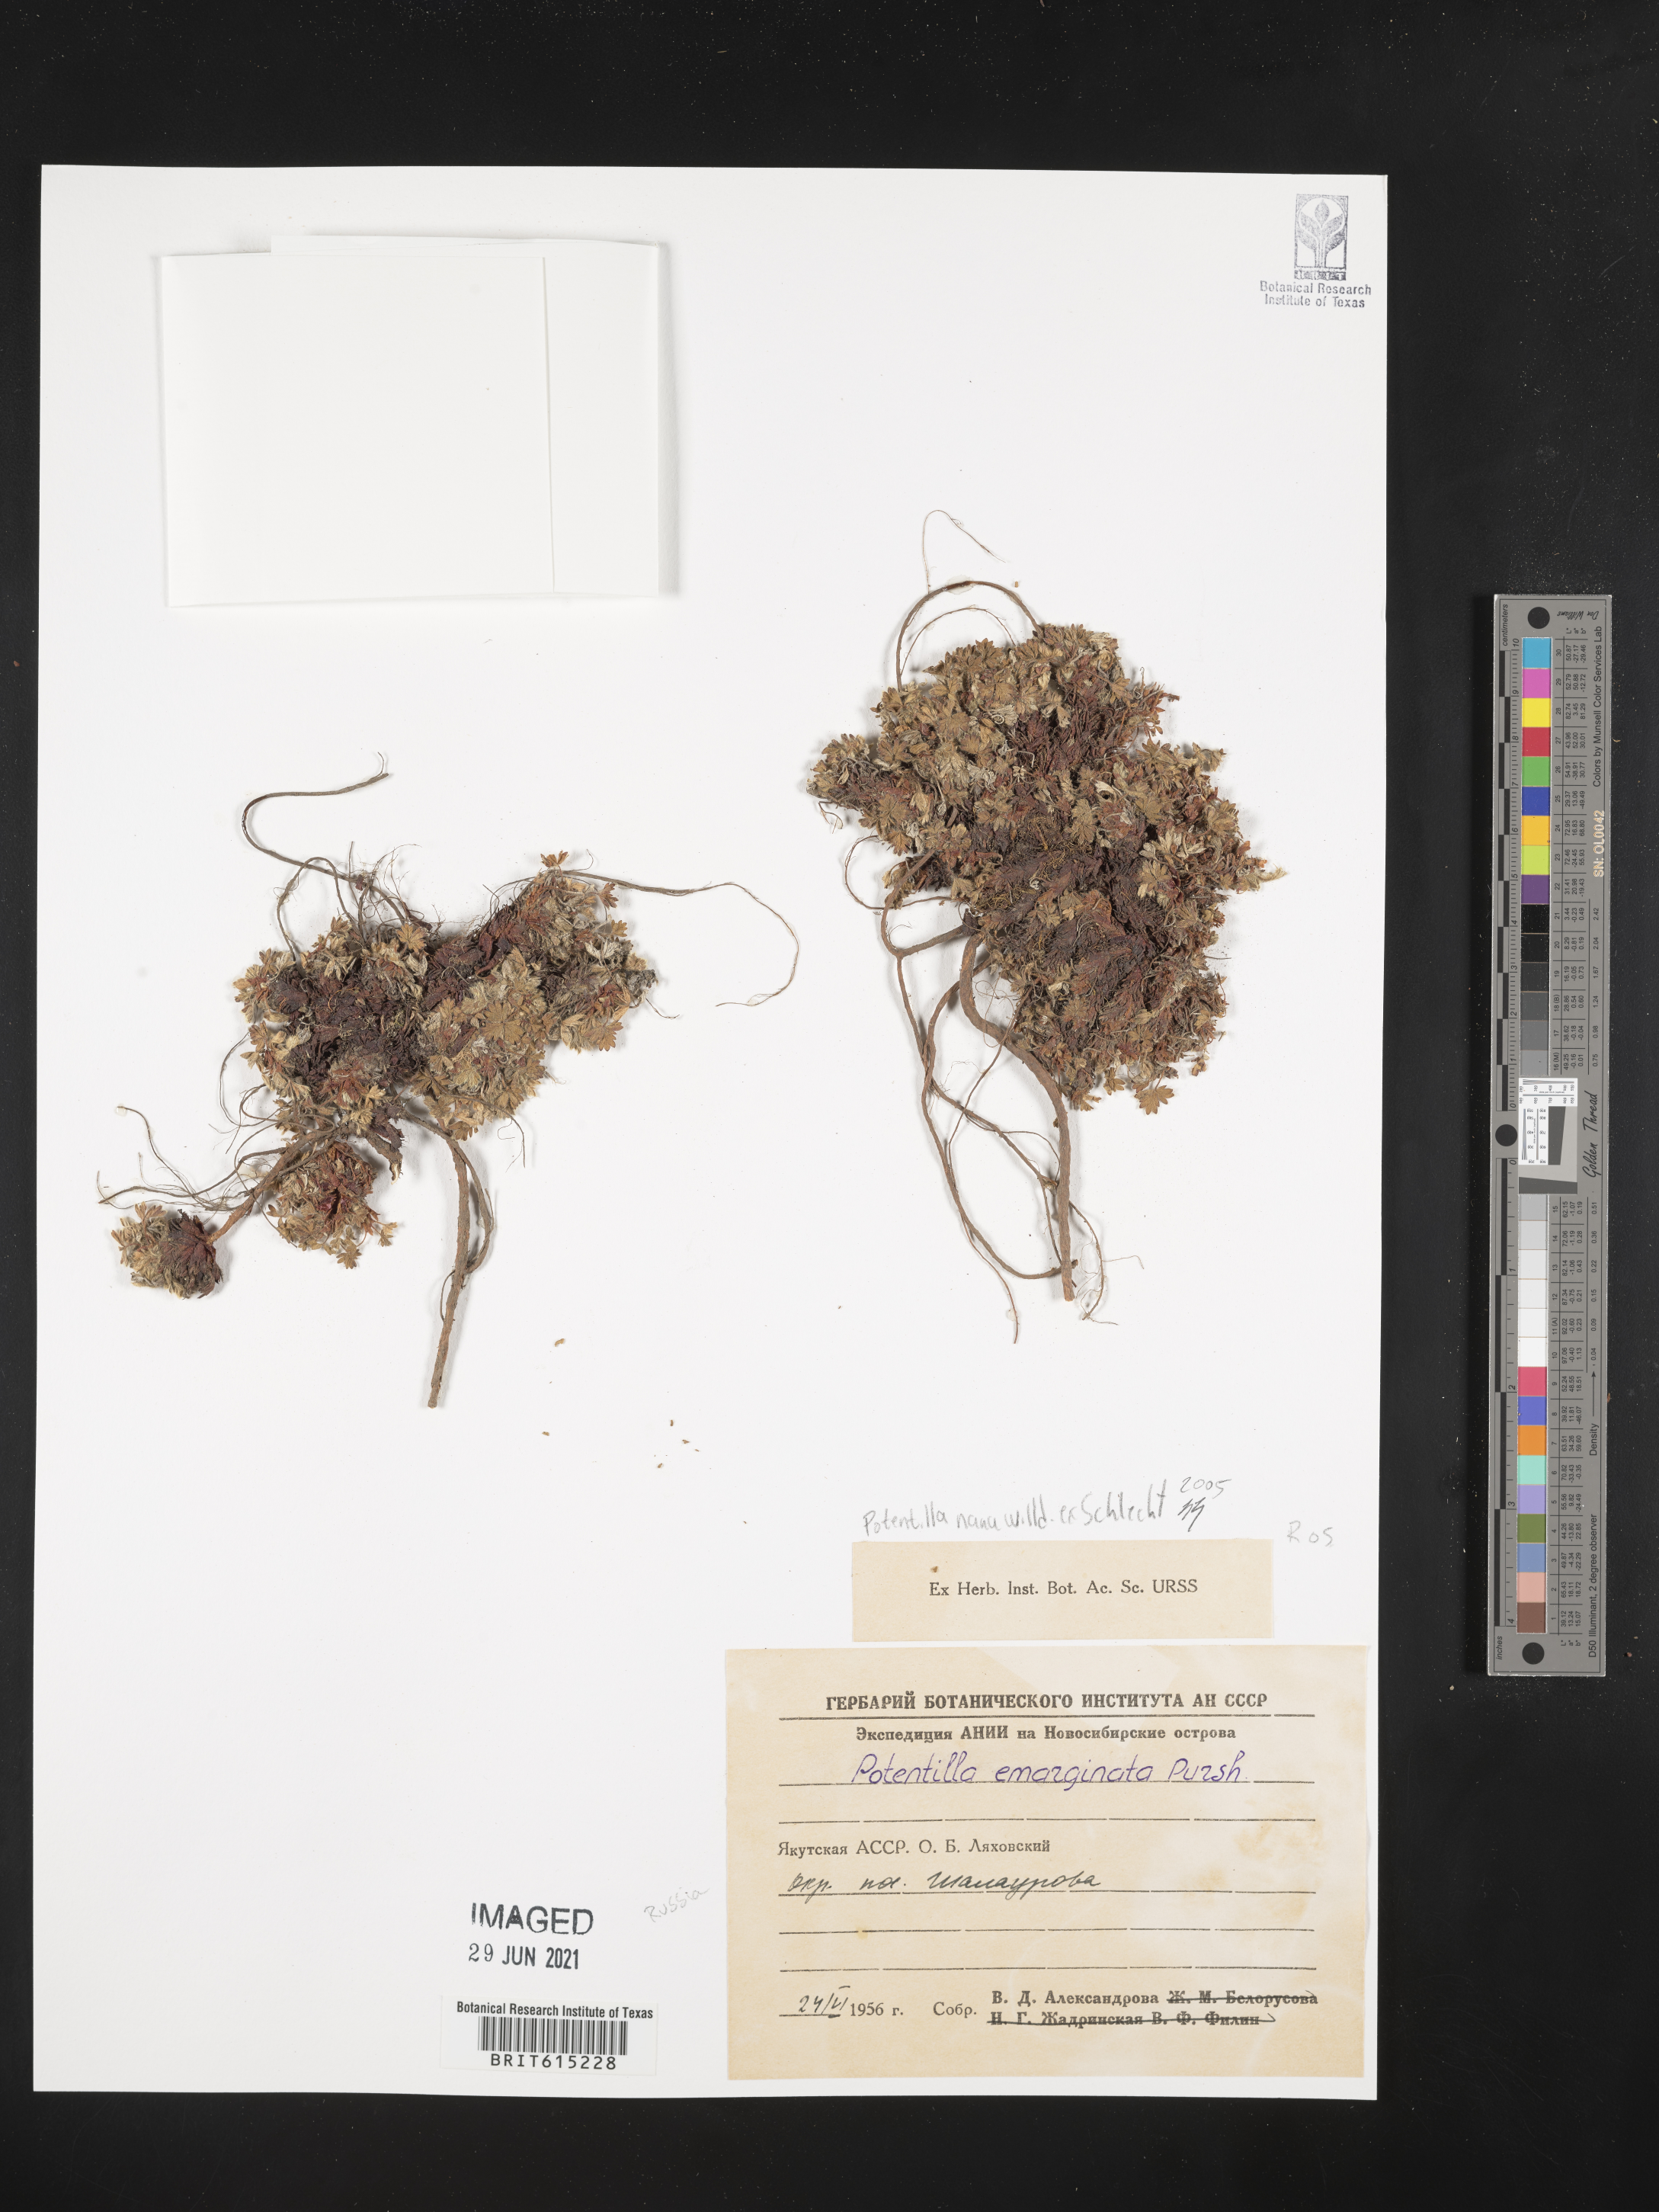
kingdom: Plantae
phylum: Tracheophyta
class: Magnoliopsida
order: Rosales
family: Rosaceae
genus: Potentilla
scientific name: Potentilla hyparctica
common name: Arctic cinquefoil
